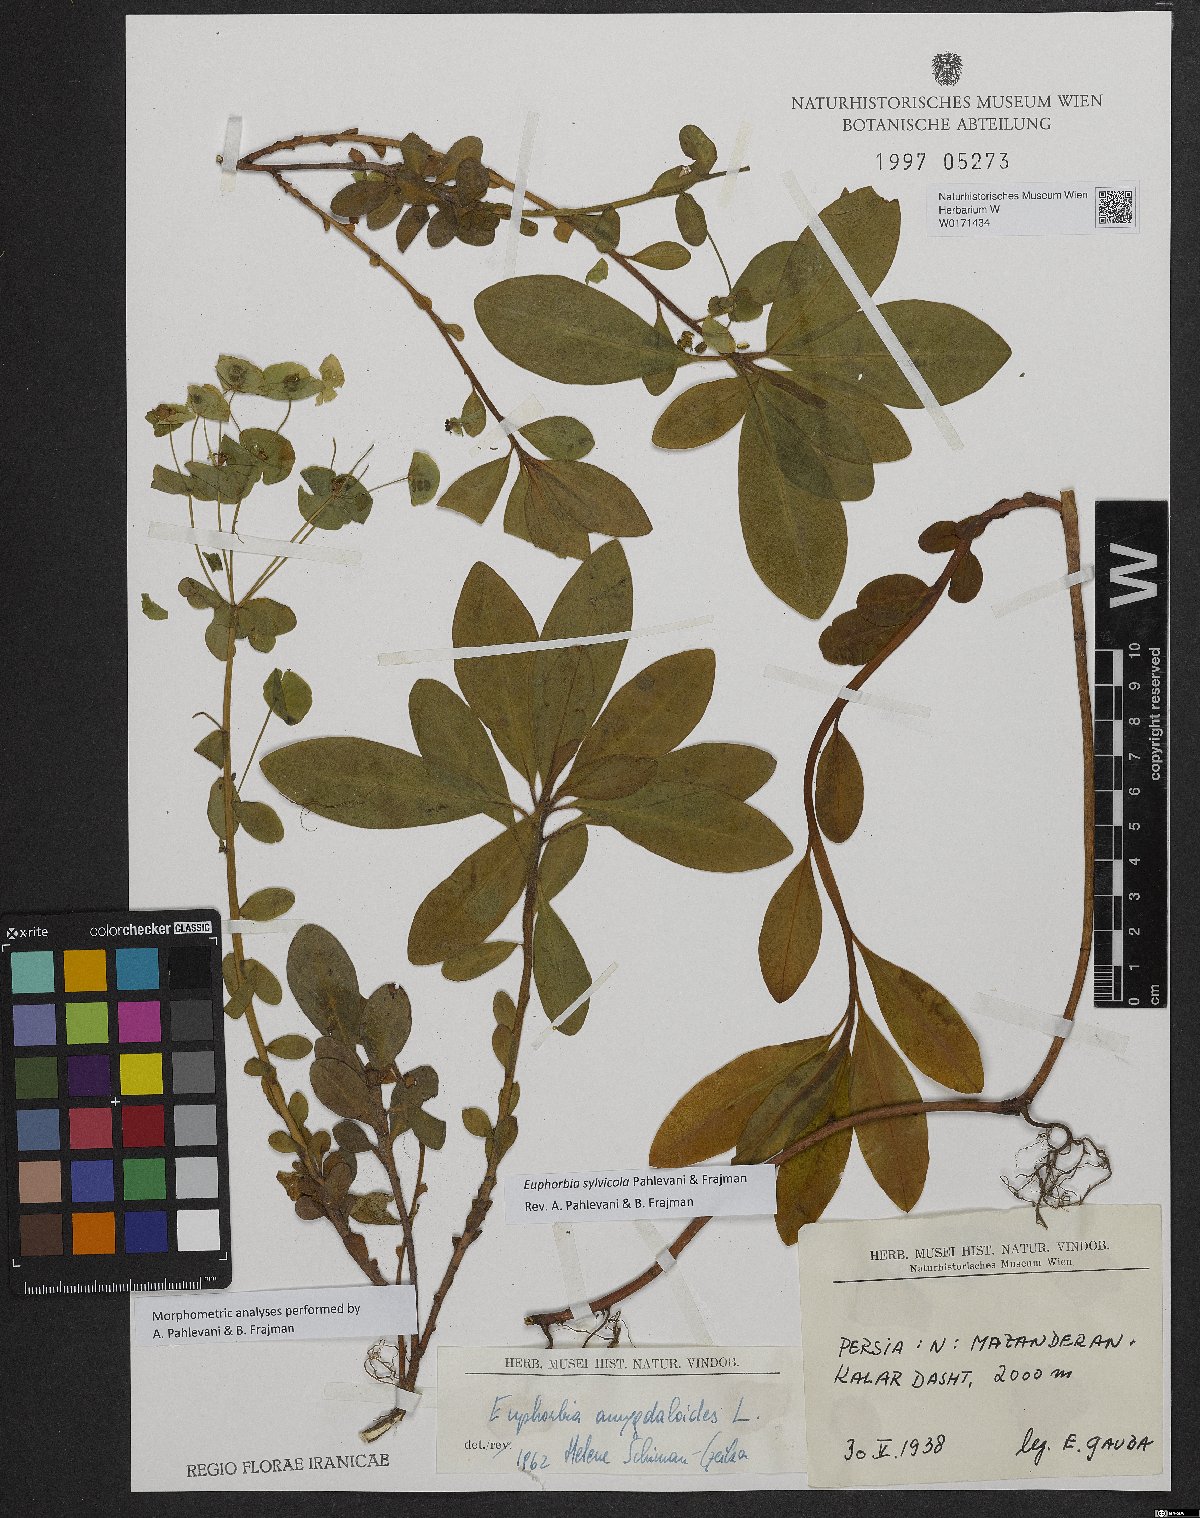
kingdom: Plantae
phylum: Tracheophyta
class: Magnoliopsida
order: Malpighiales
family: Euphorbiaceae
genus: Euphorbia
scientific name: Euphorbia juttae
